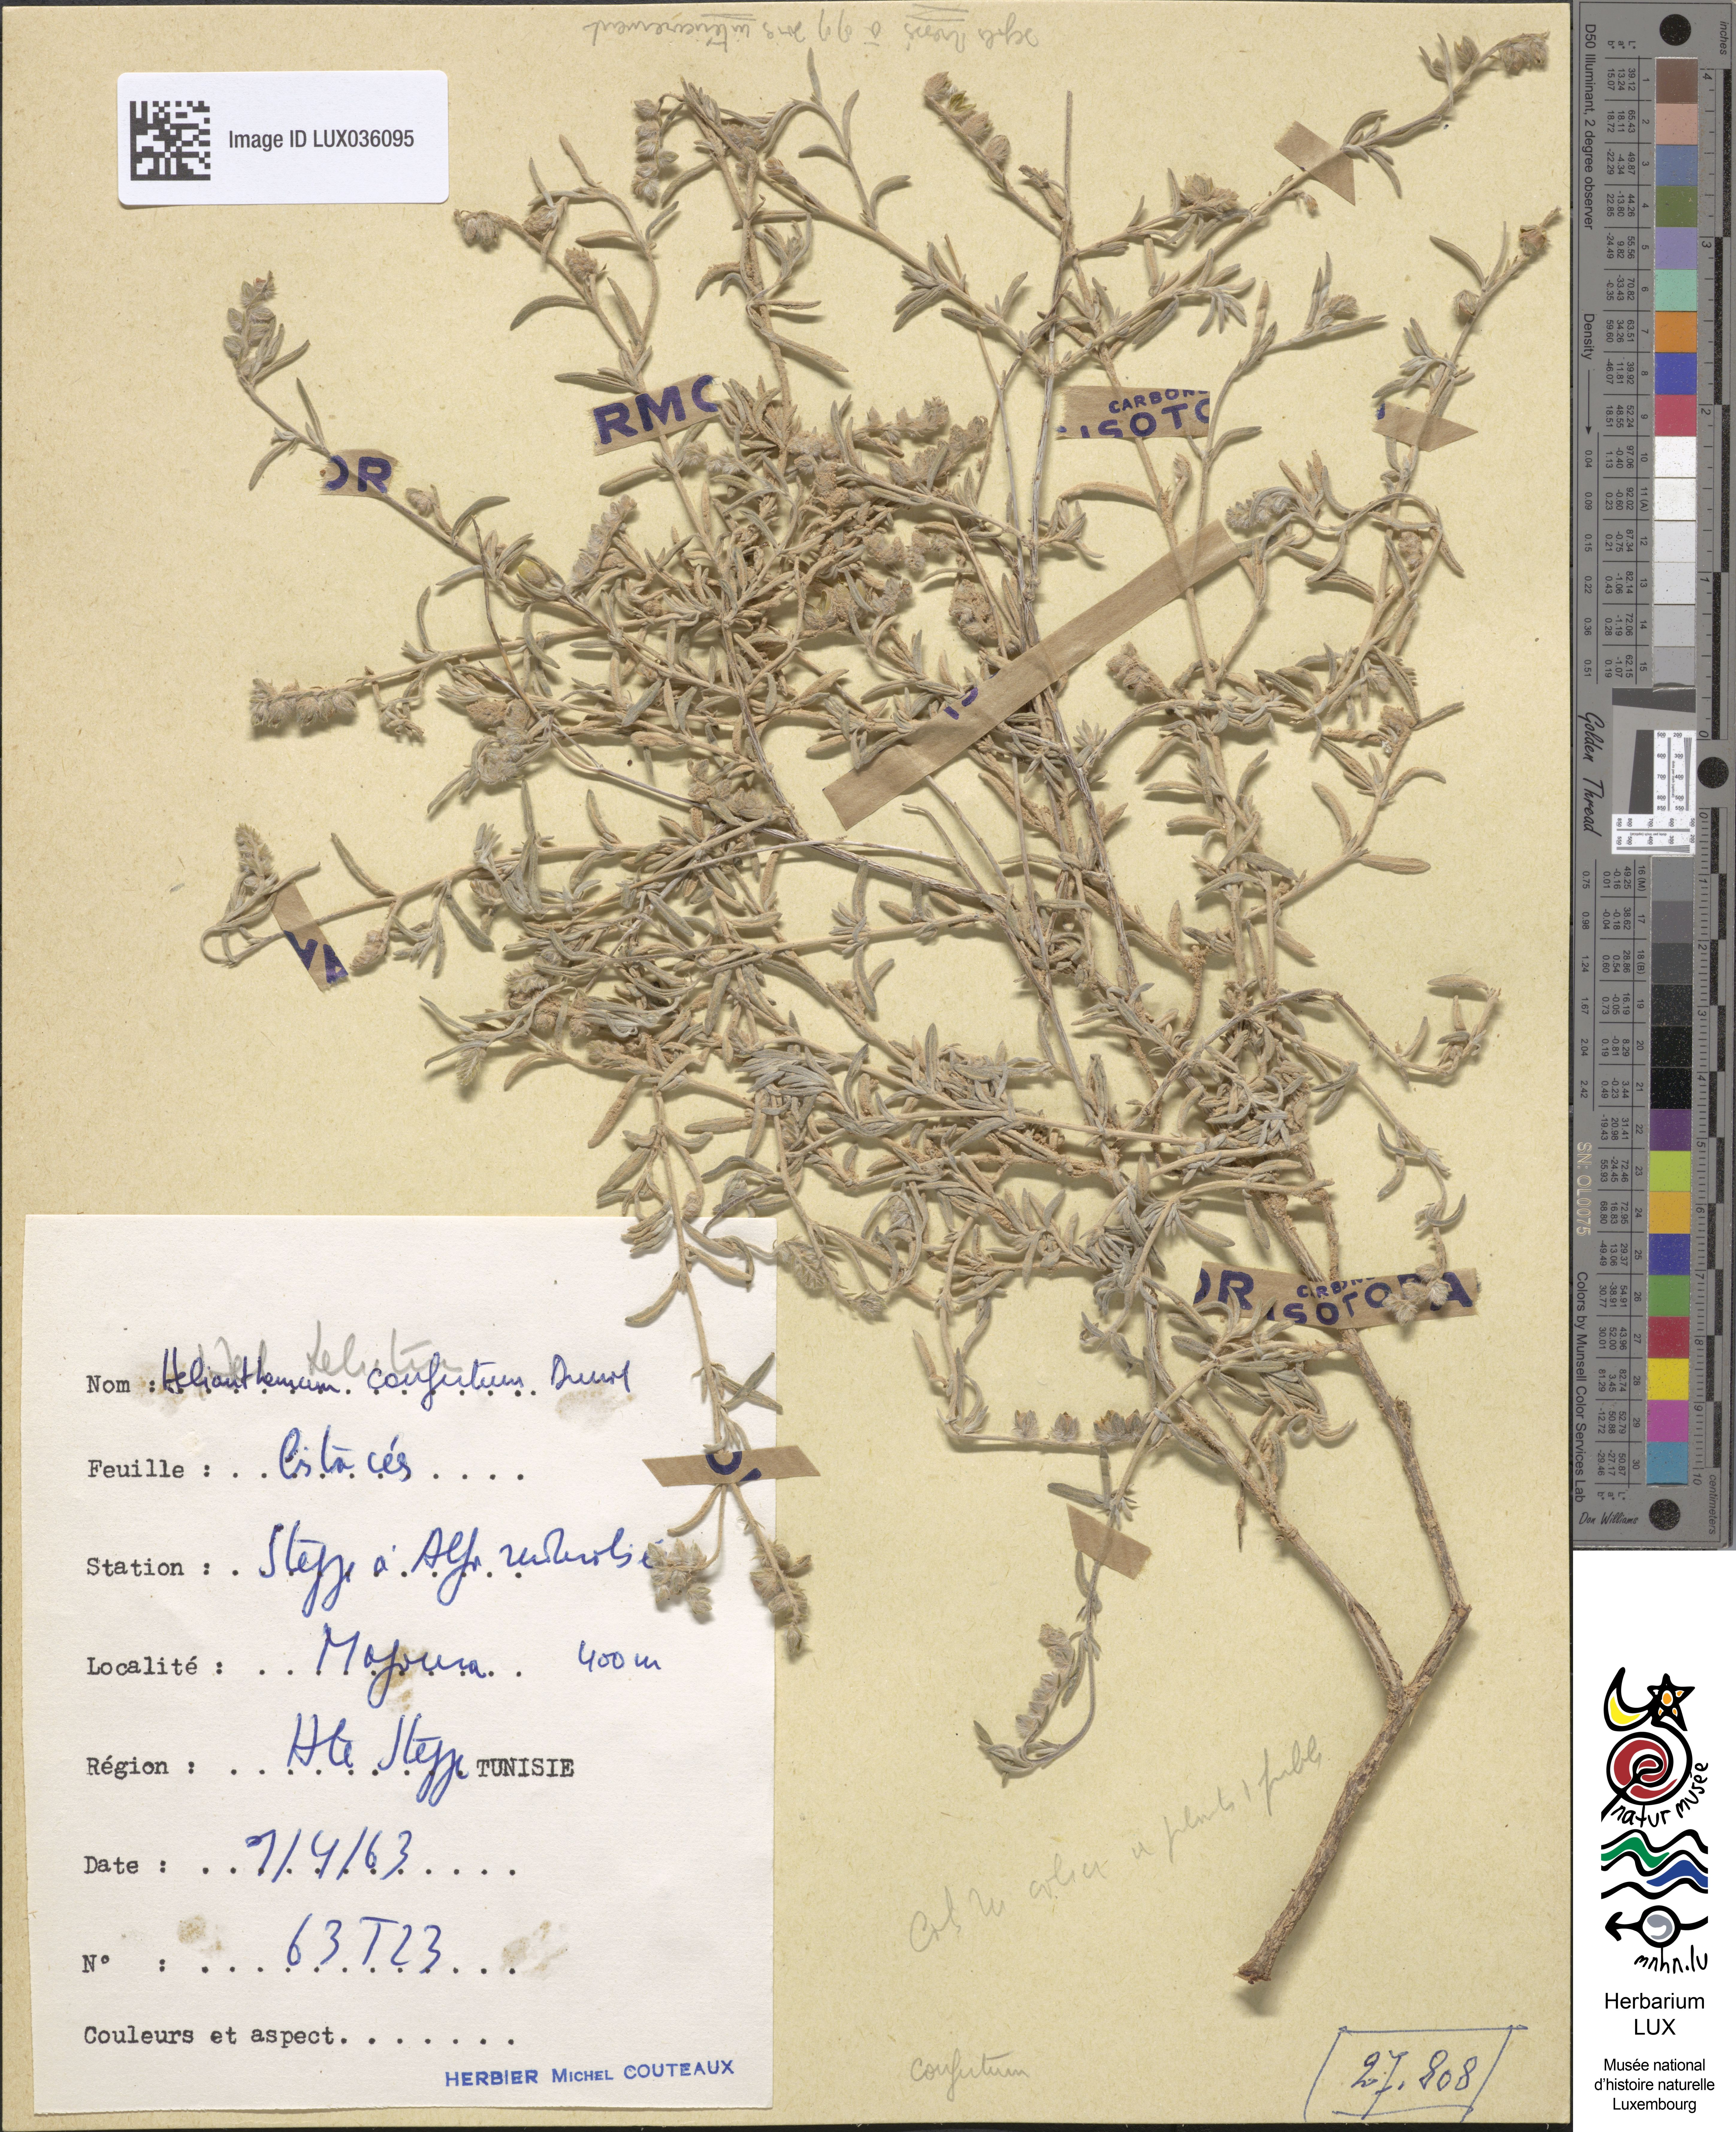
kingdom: Plantae
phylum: Tracheophyta
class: Magnoliopsida
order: Malvales
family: Cistaceae
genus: Helianthemum
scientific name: Helianthemum confertum
